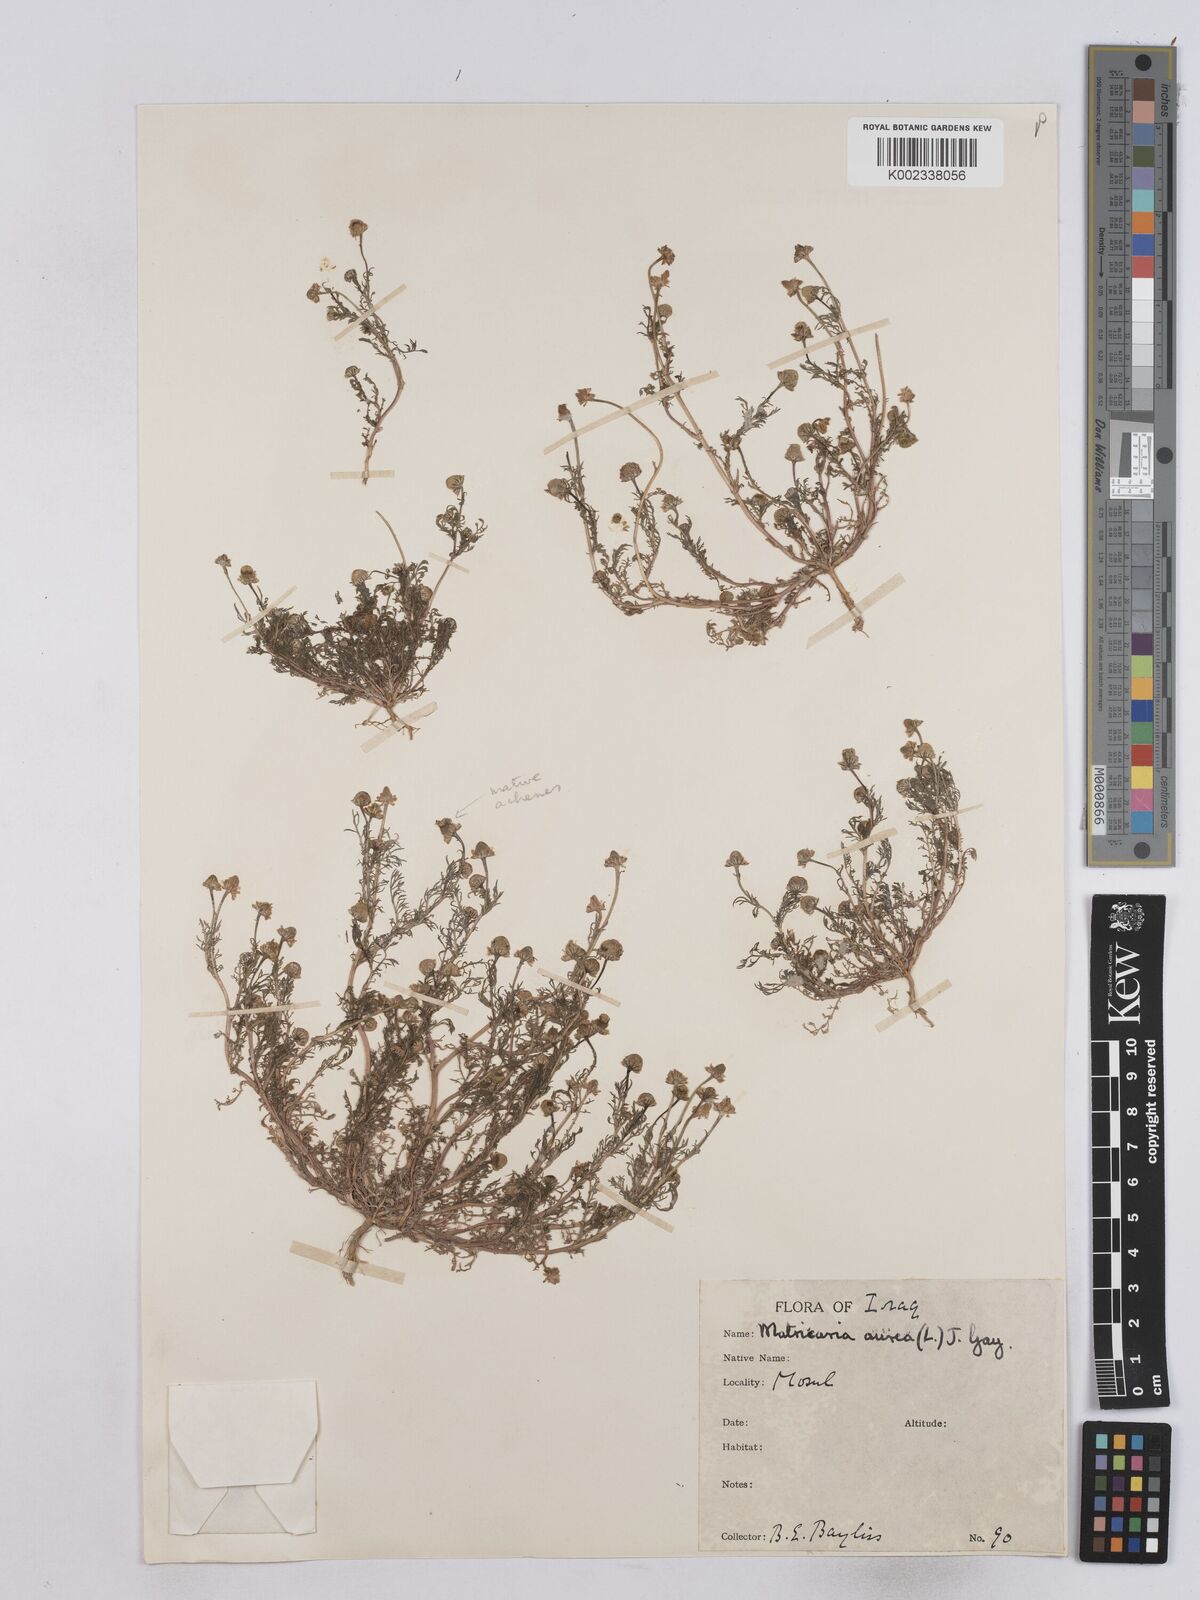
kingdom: Plantae
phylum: Tracheophyta
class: Magnoliopsida
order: Asterales
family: Asteraceae
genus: Matricaria
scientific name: Matricaria aurea
